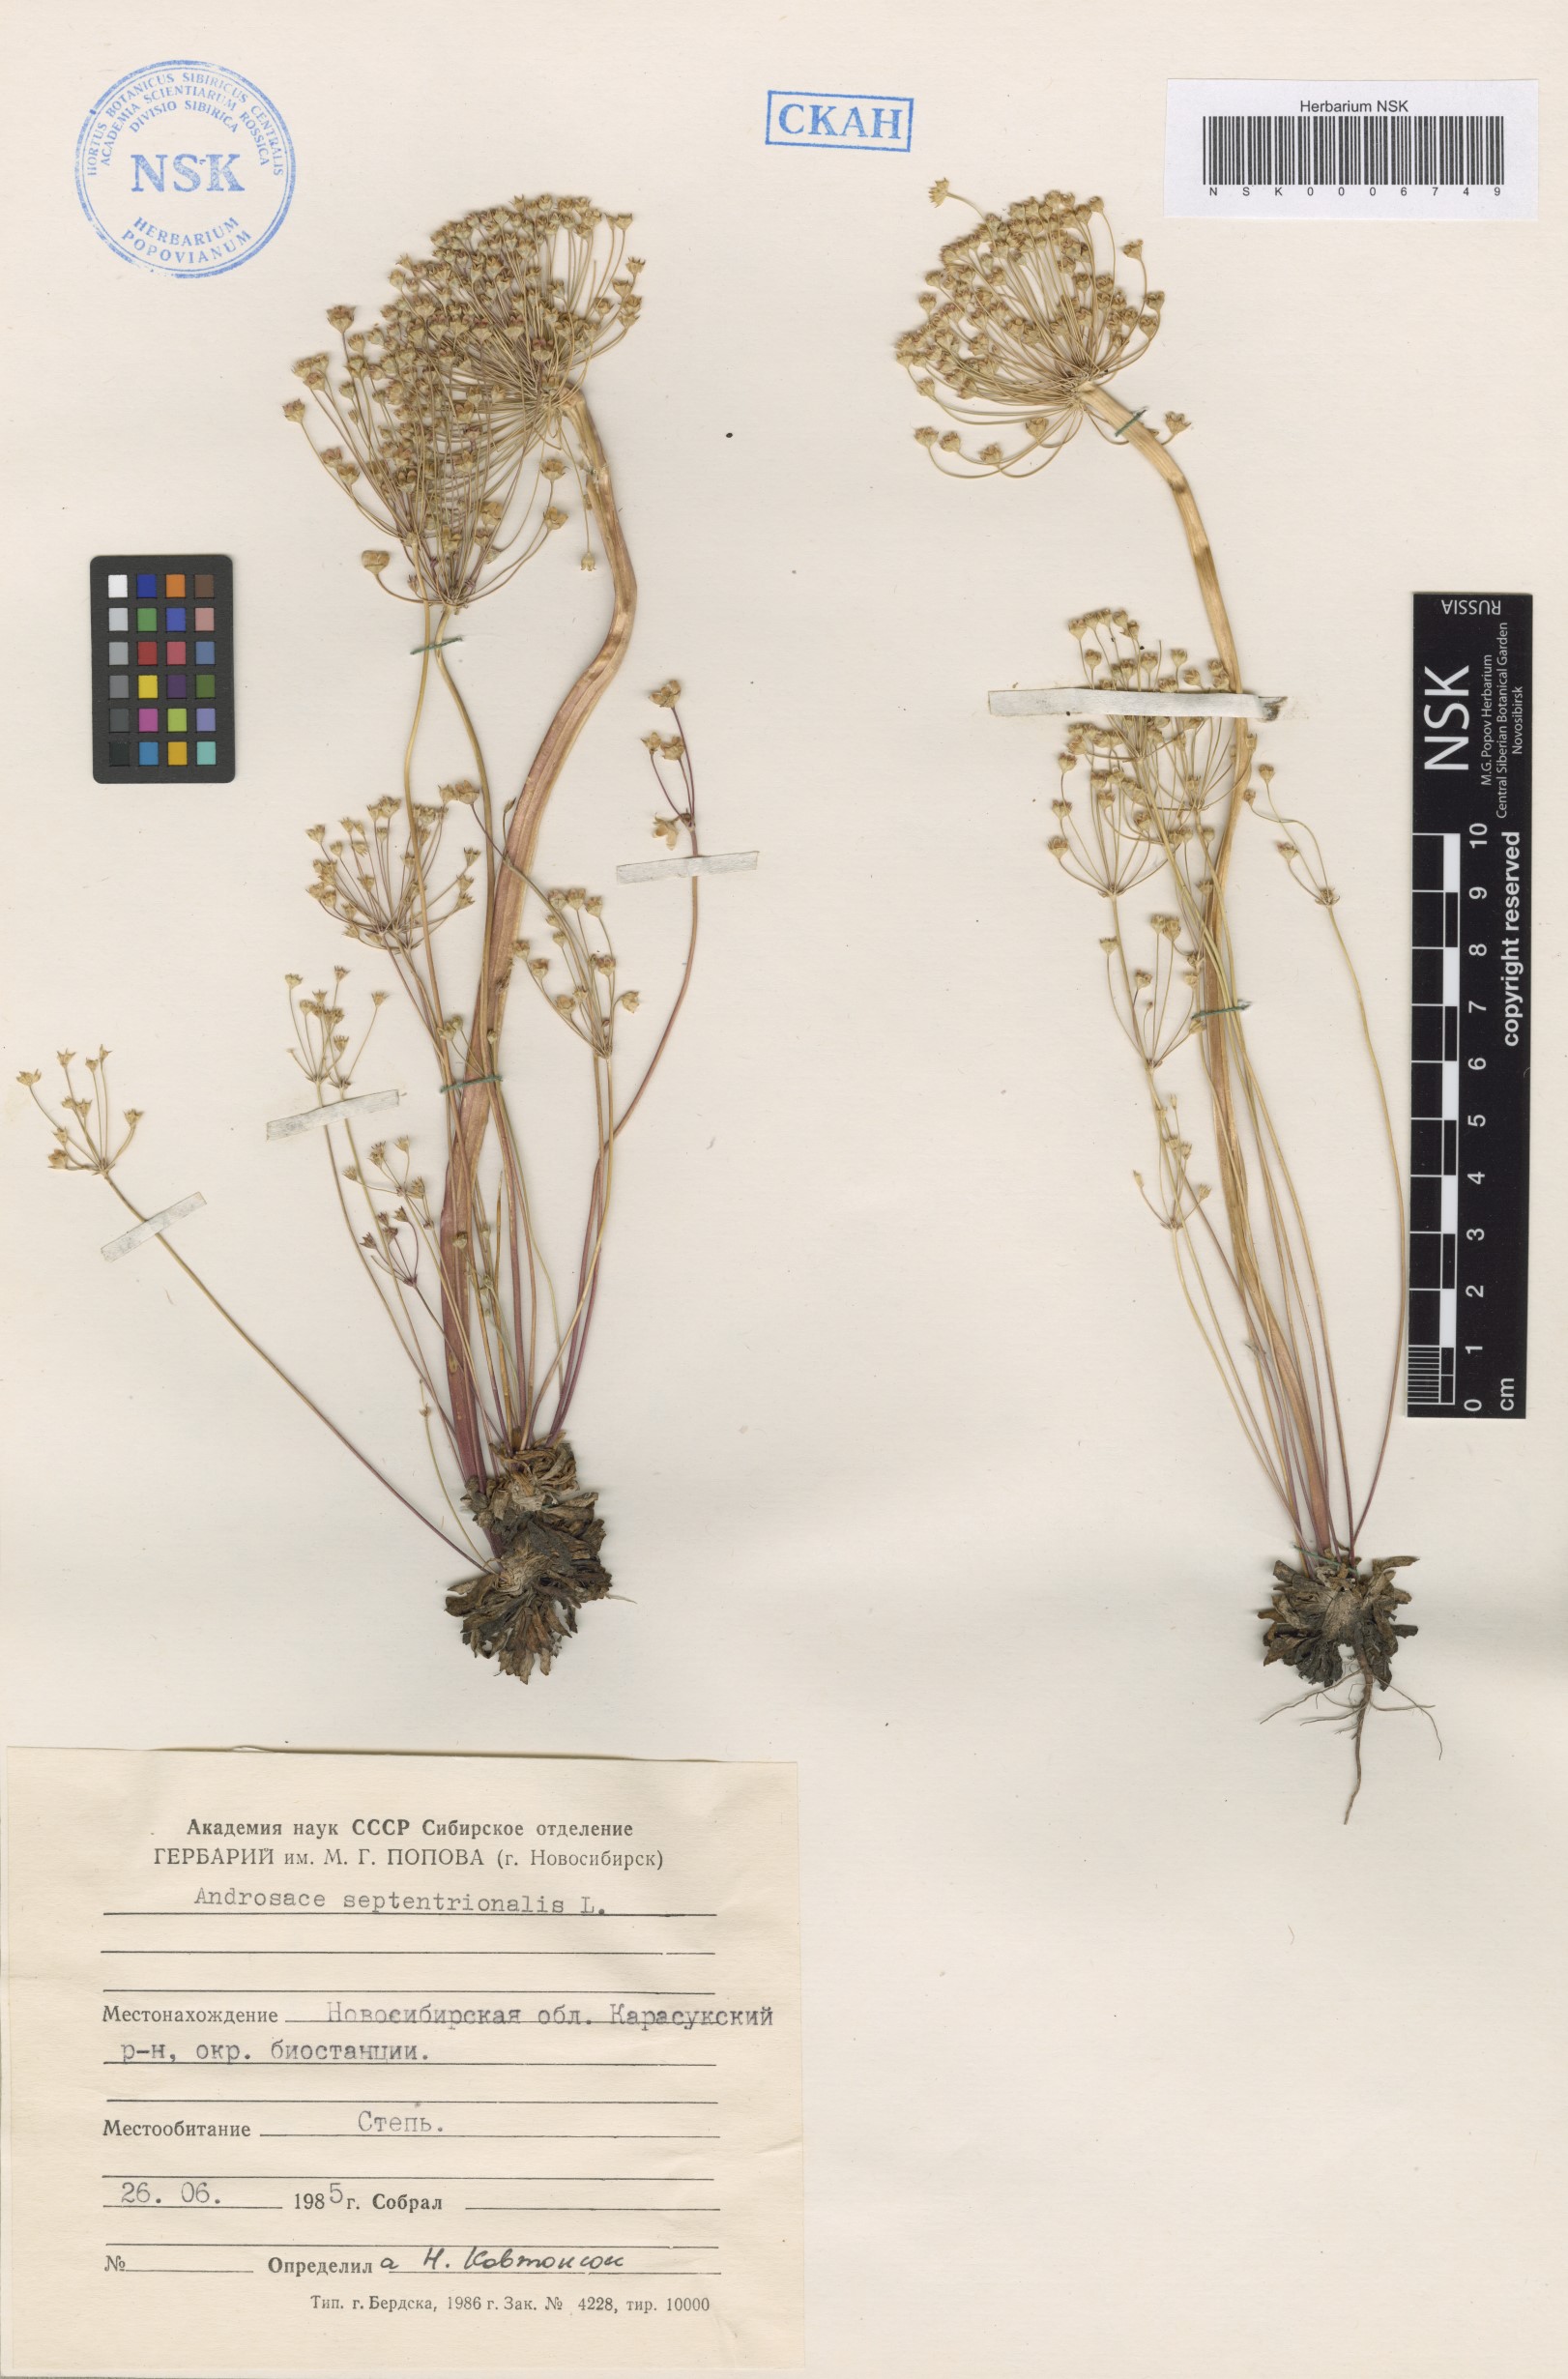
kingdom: Plantae
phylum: Tracheophyta
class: Magnoliopsida
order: Ericales
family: Primulaceae
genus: Androsace
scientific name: Androsace septentrionalis
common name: Hairy northern fairy-candelabra
